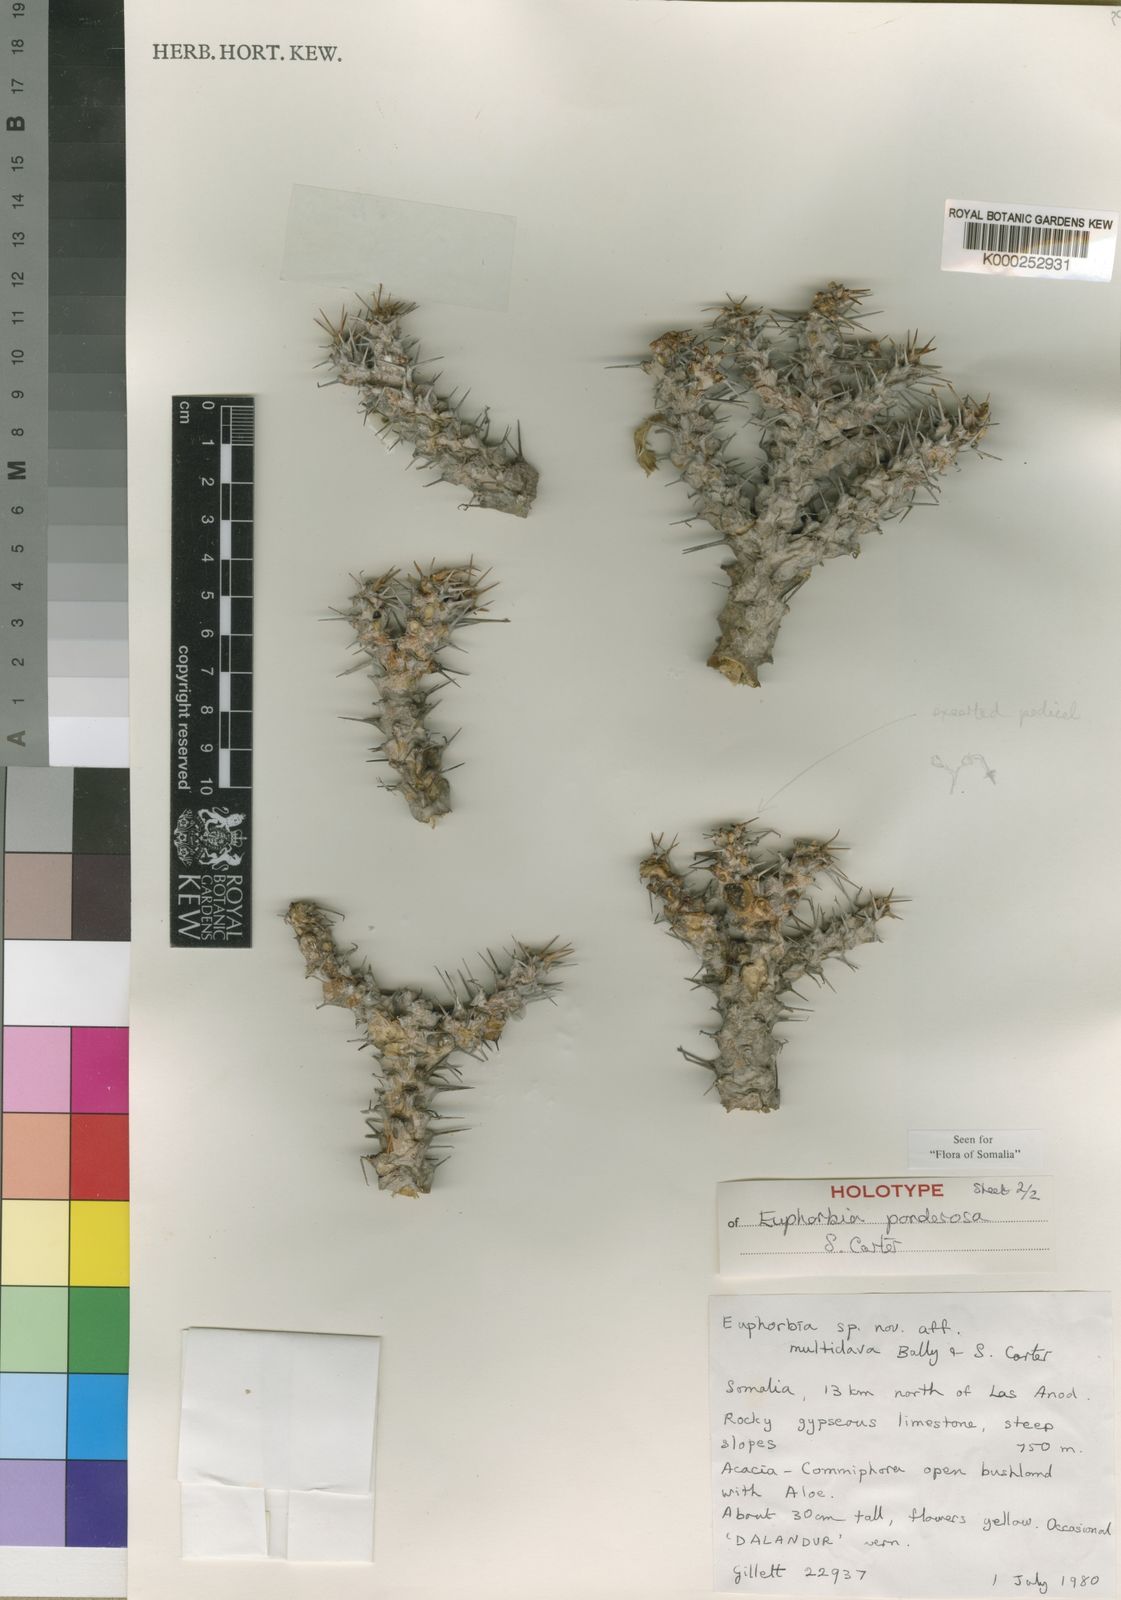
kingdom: Plantae
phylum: Tracheophyta
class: Magnoliopsida
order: Malpighiales
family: Euphorbiaceae
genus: Euphorbia
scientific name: Euphorbia ponderosa
